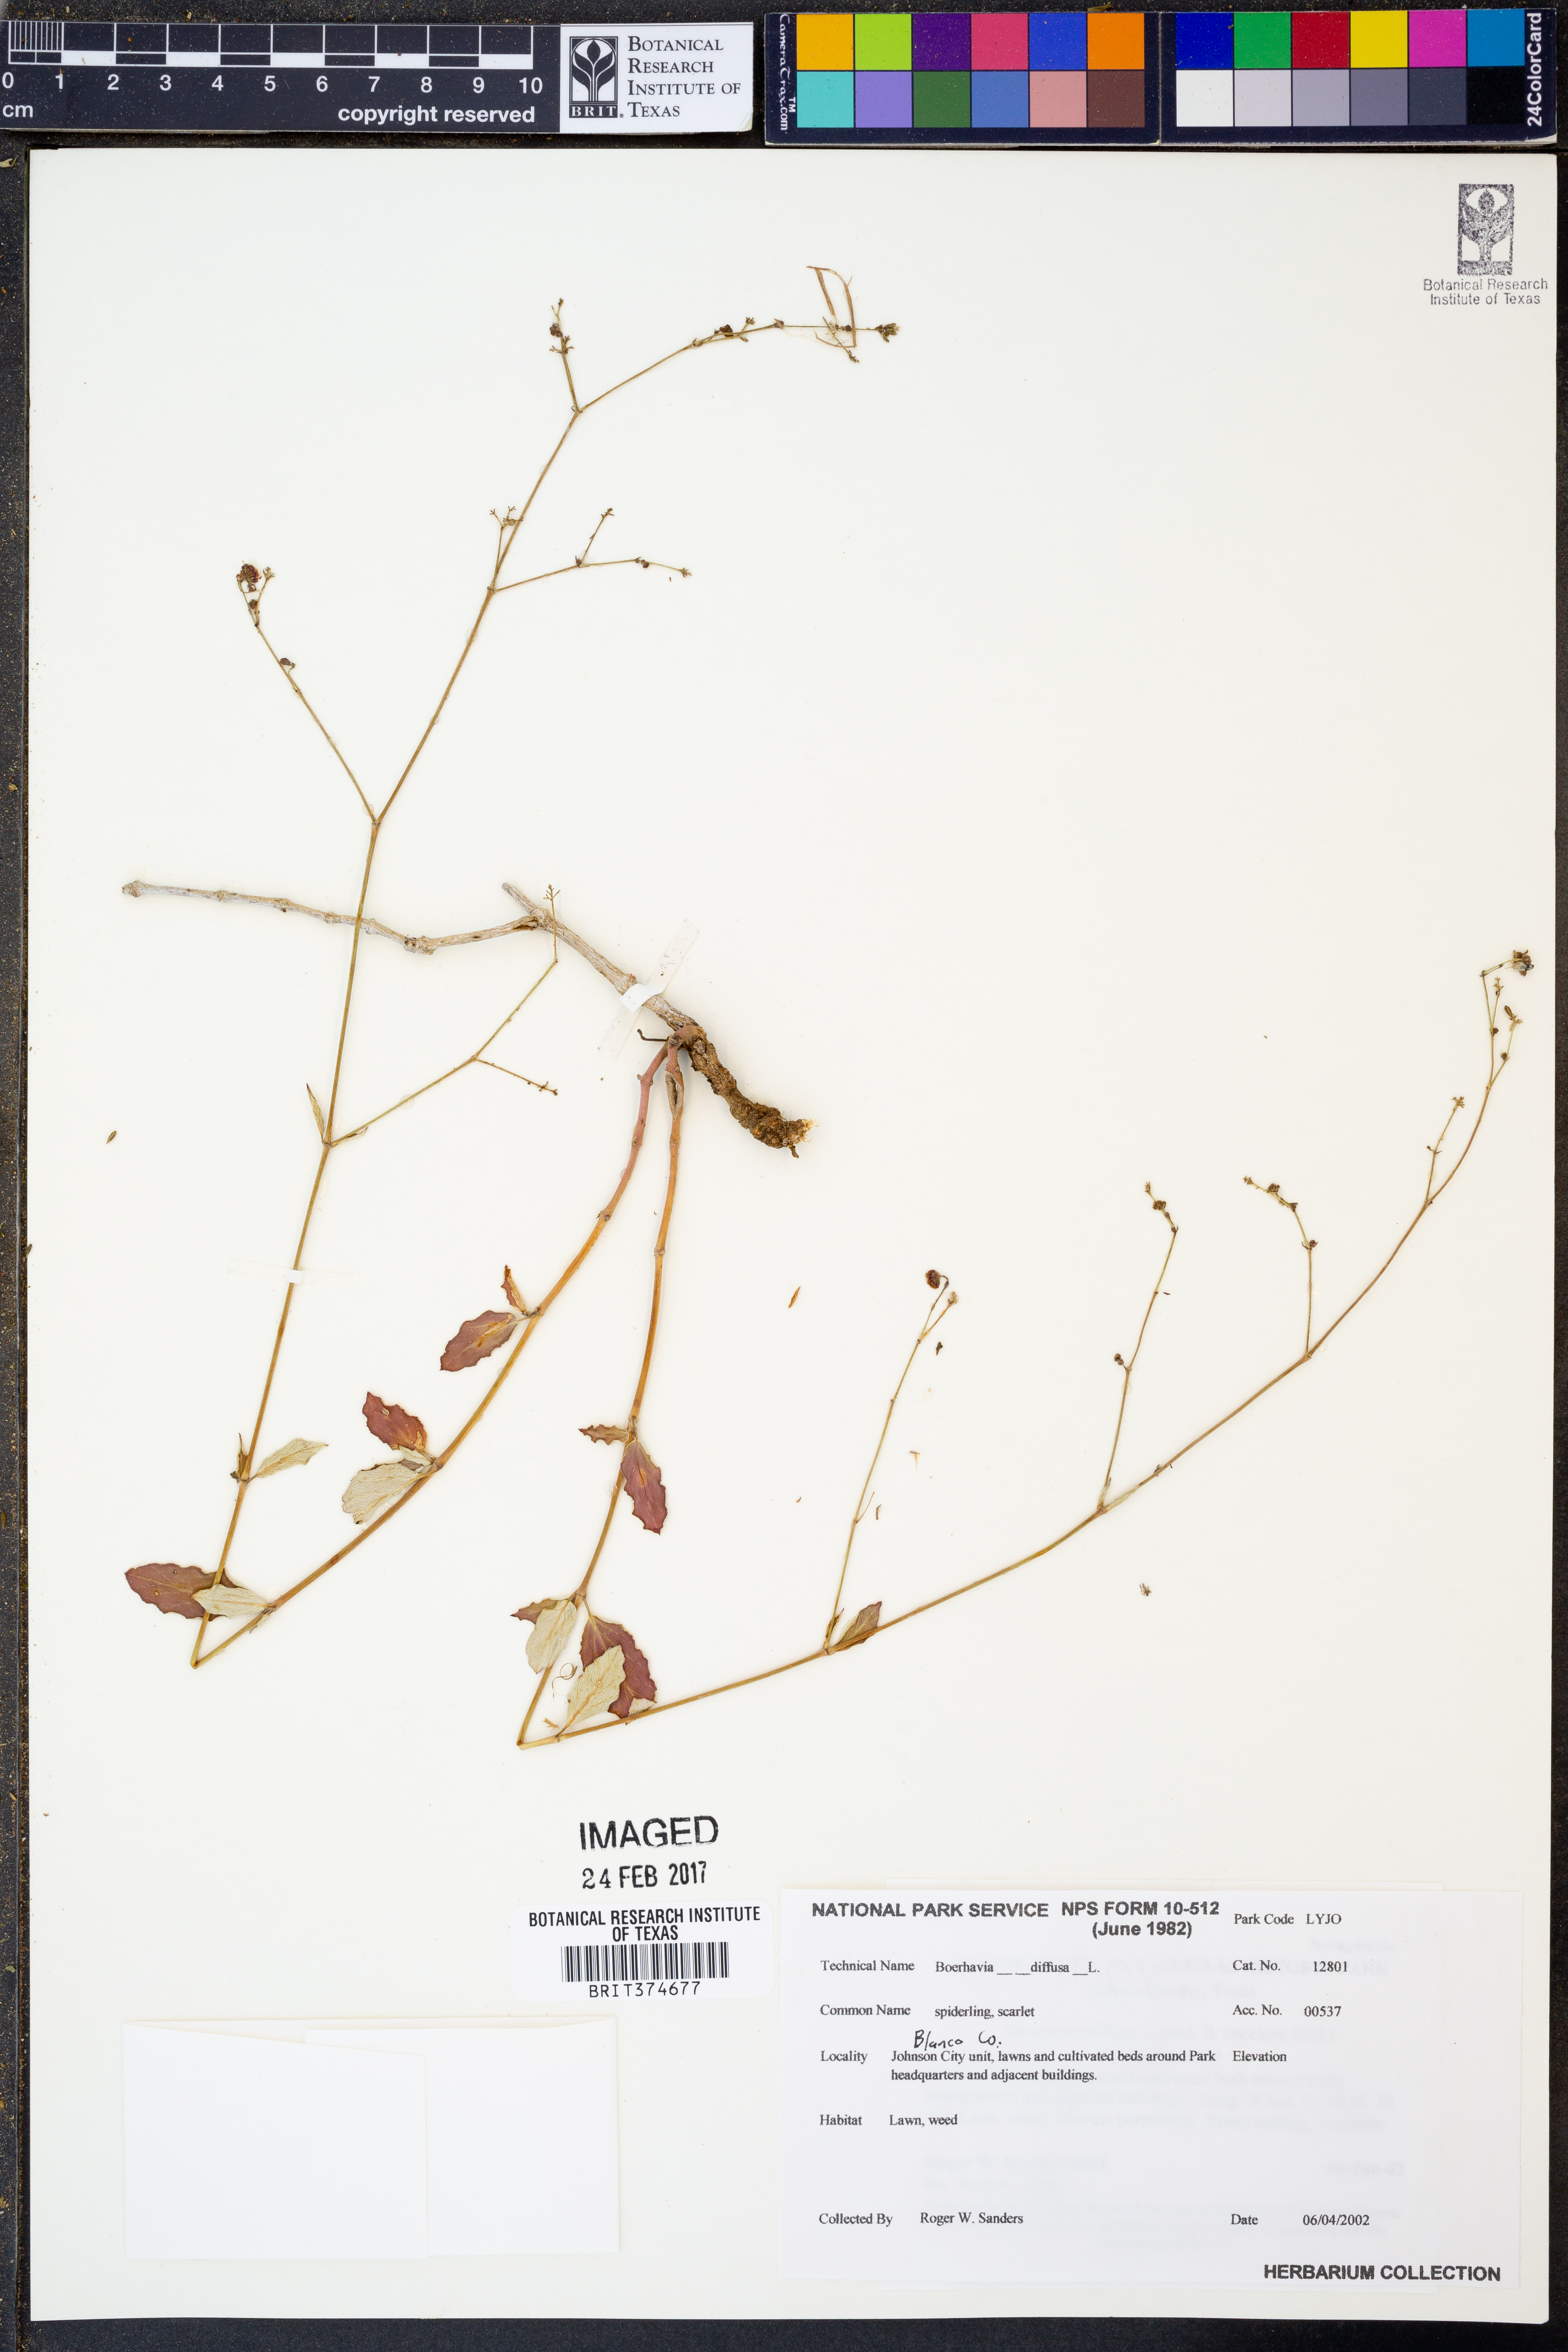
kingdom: Plantae
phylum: Tracheophyta
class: Magnoliopsida
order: Caryophyllales
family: Nyctaginaceae
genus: Boerhavia
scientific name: Boerhavia diffusa
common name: Red spiderling
